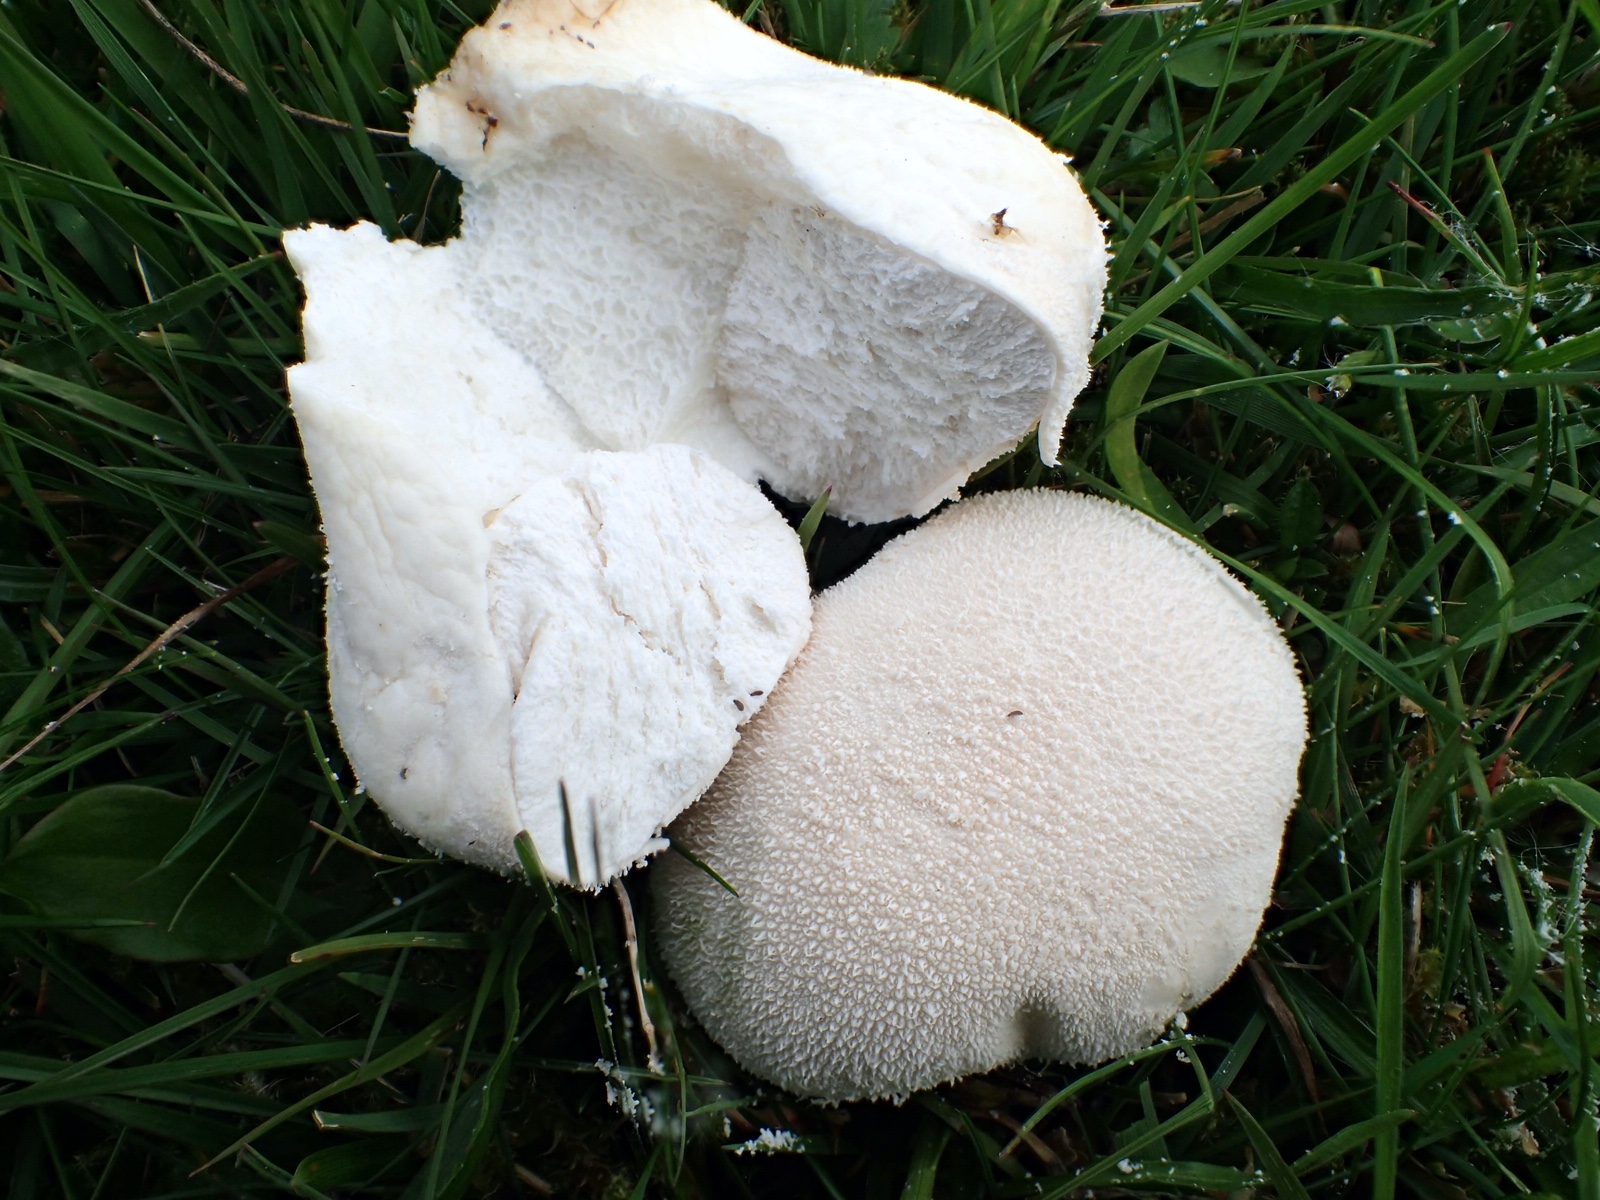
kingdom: Fungi
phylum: Basidiomycota
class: Agaricomycetes
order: Agaricales
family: Lycoperdaceae
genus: Lycoperdon
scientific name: Lycoperdon pratense
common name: flad støvbold
